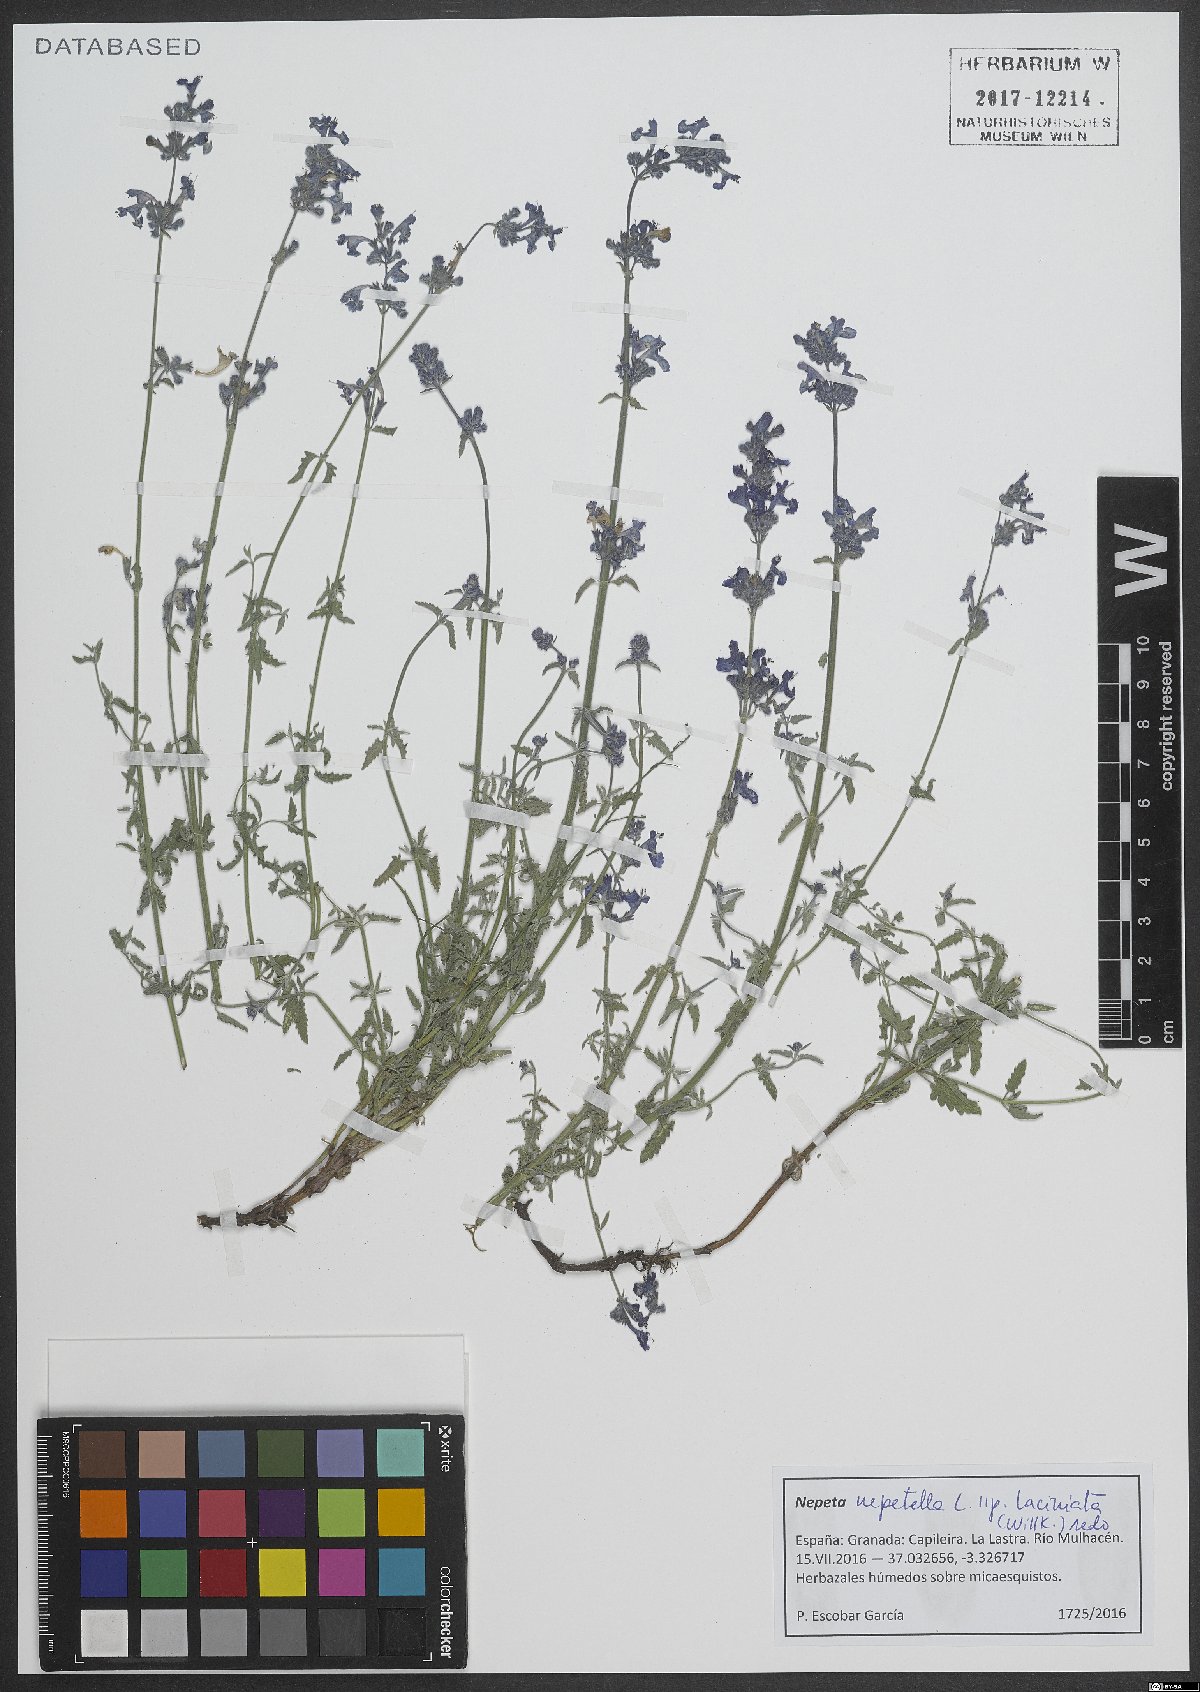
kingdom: Plantae
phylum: Tracheophyta
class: Magnoliopsida
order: Lamiales
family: Lamiaceae
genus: Nepeta
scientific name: Nepeta nepetella
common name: Lesser catmint
